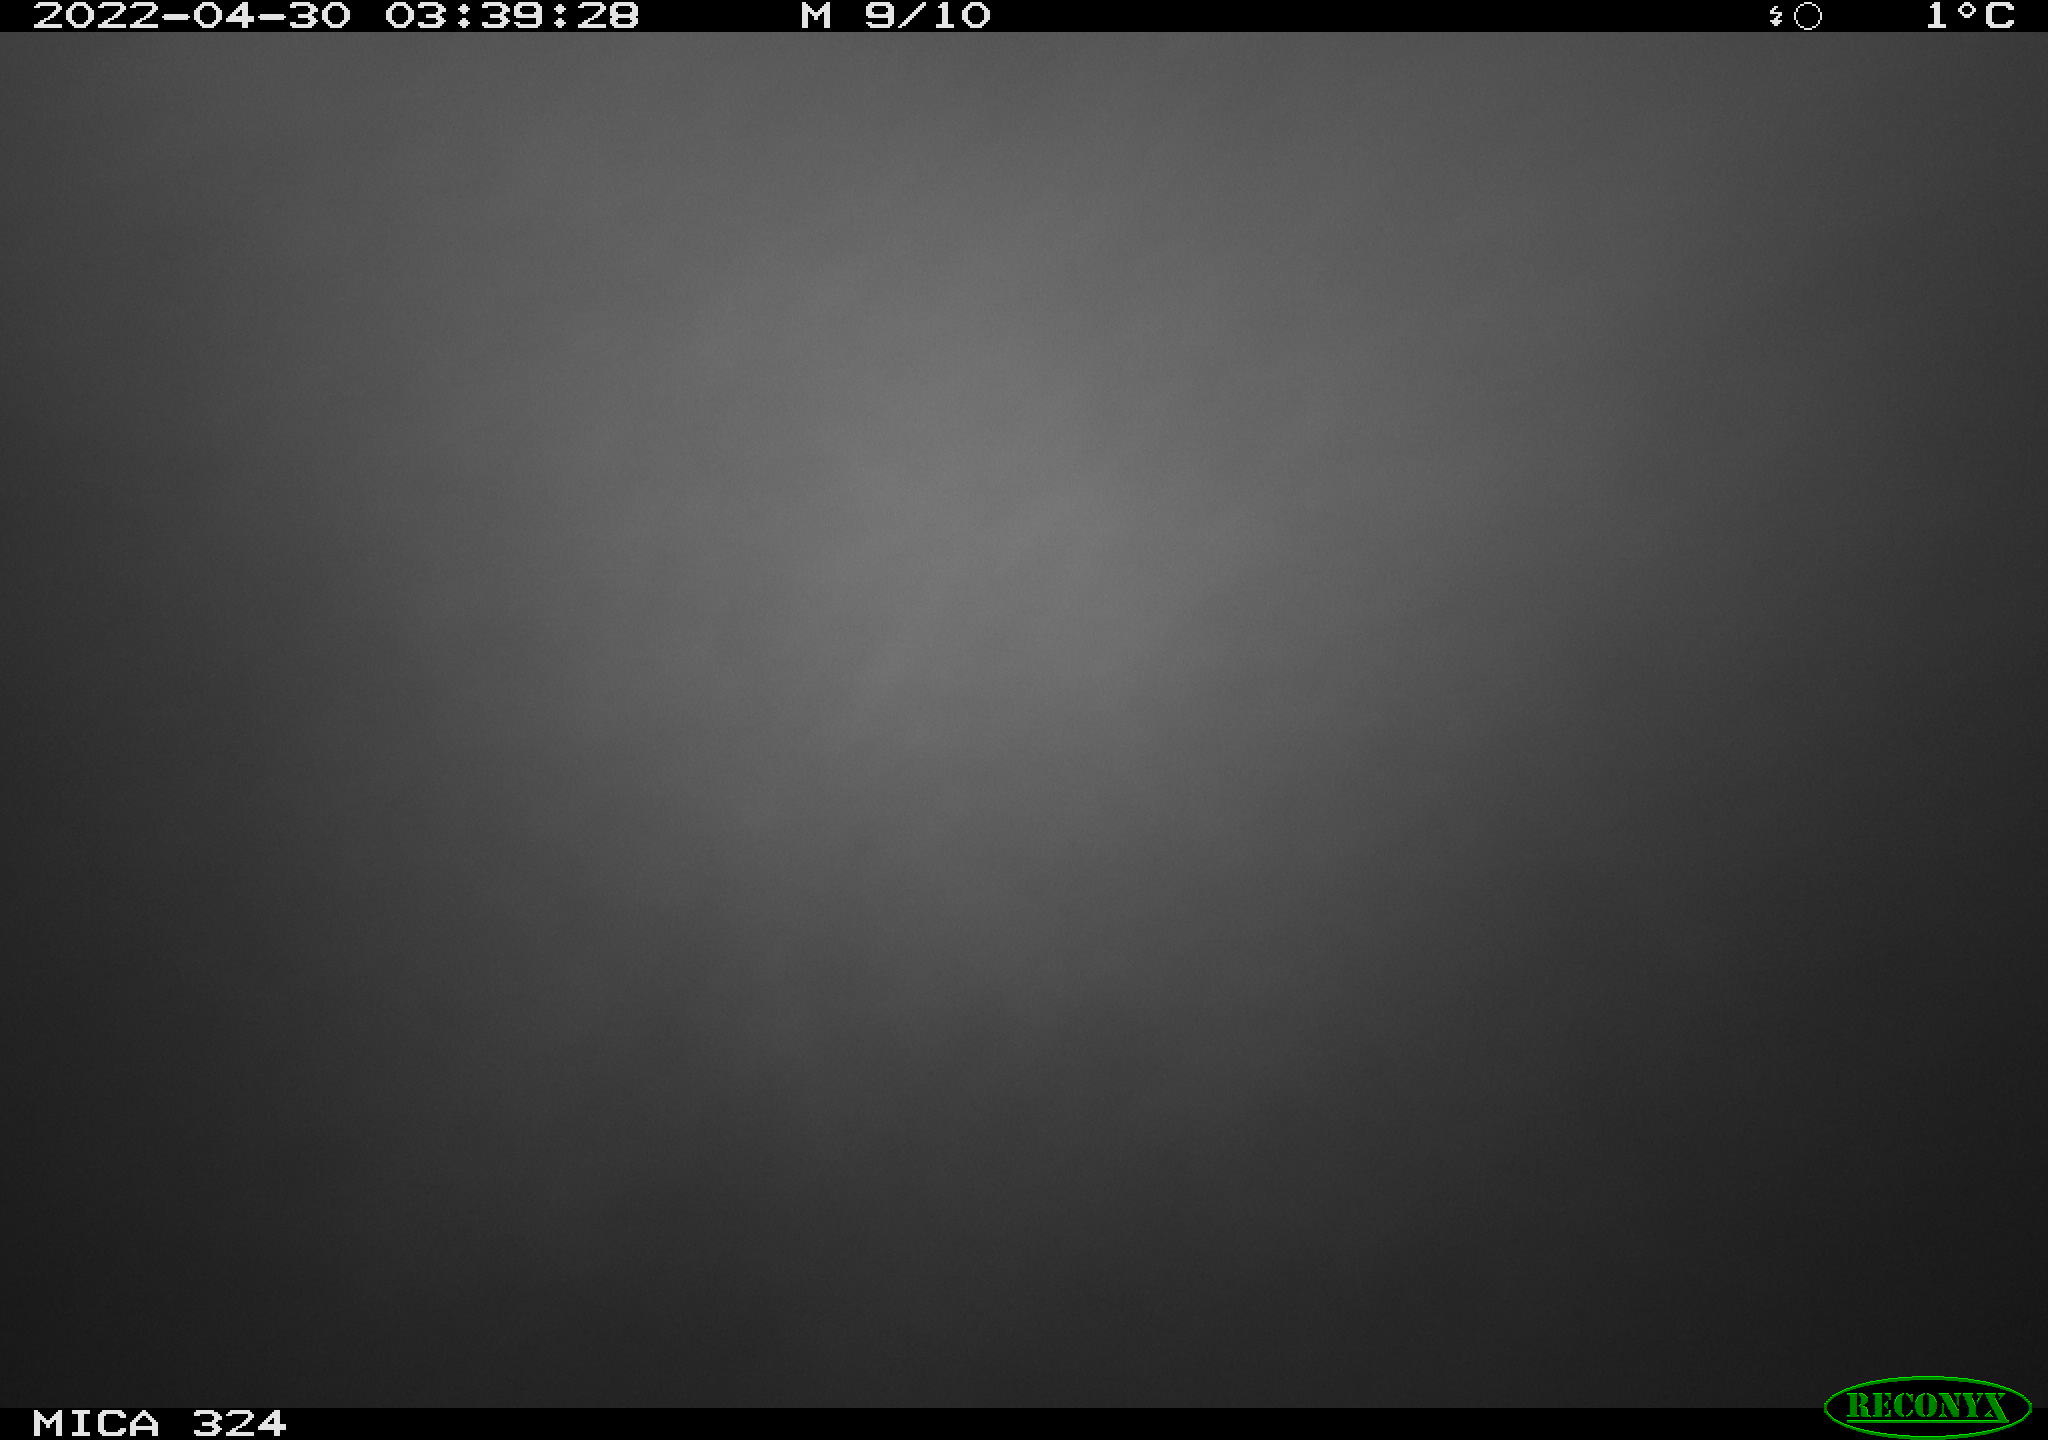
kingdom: Animalia
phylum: Chordata
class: Aves
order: Anseriformes
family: Anatidae
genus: Anas
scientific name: Anas platyrhynchos
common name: Mallard
